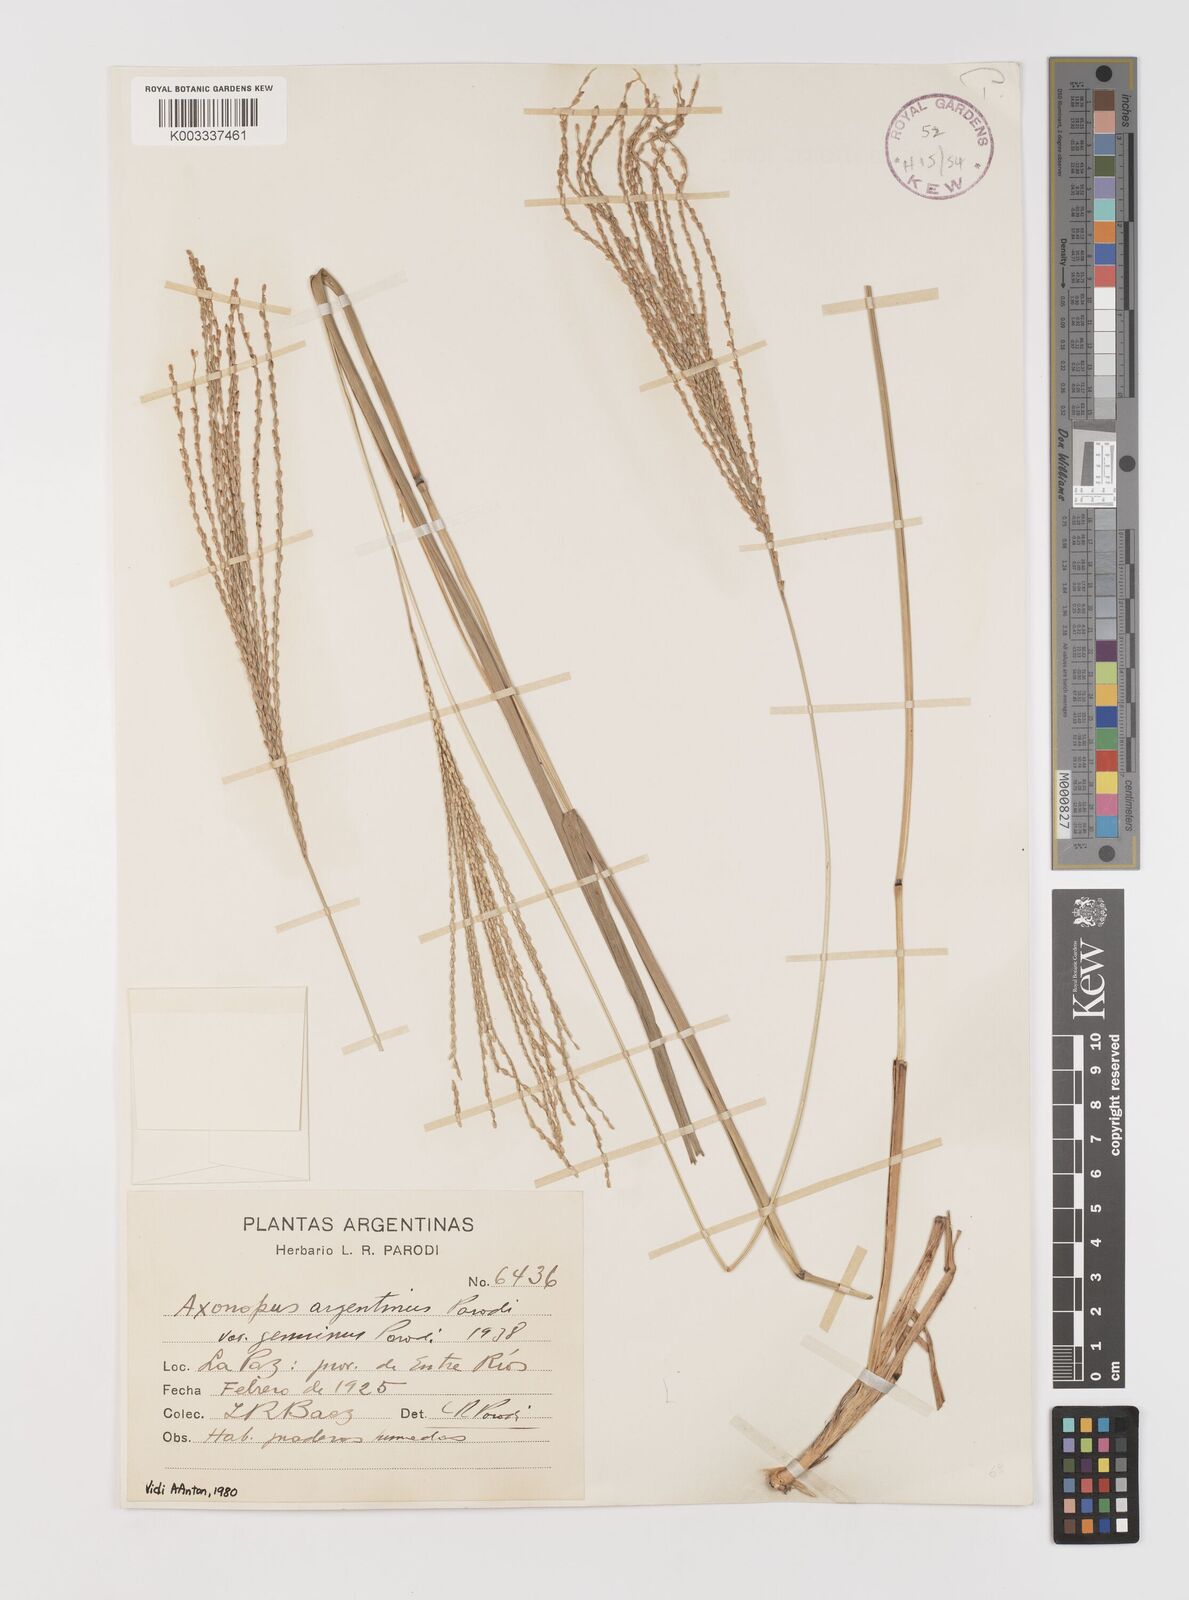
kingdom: Plantae
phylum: Tracheophyta
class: Liliopsida
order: Poales
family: Poaceae
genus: Axonopus
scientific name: Axonopus argentinus
